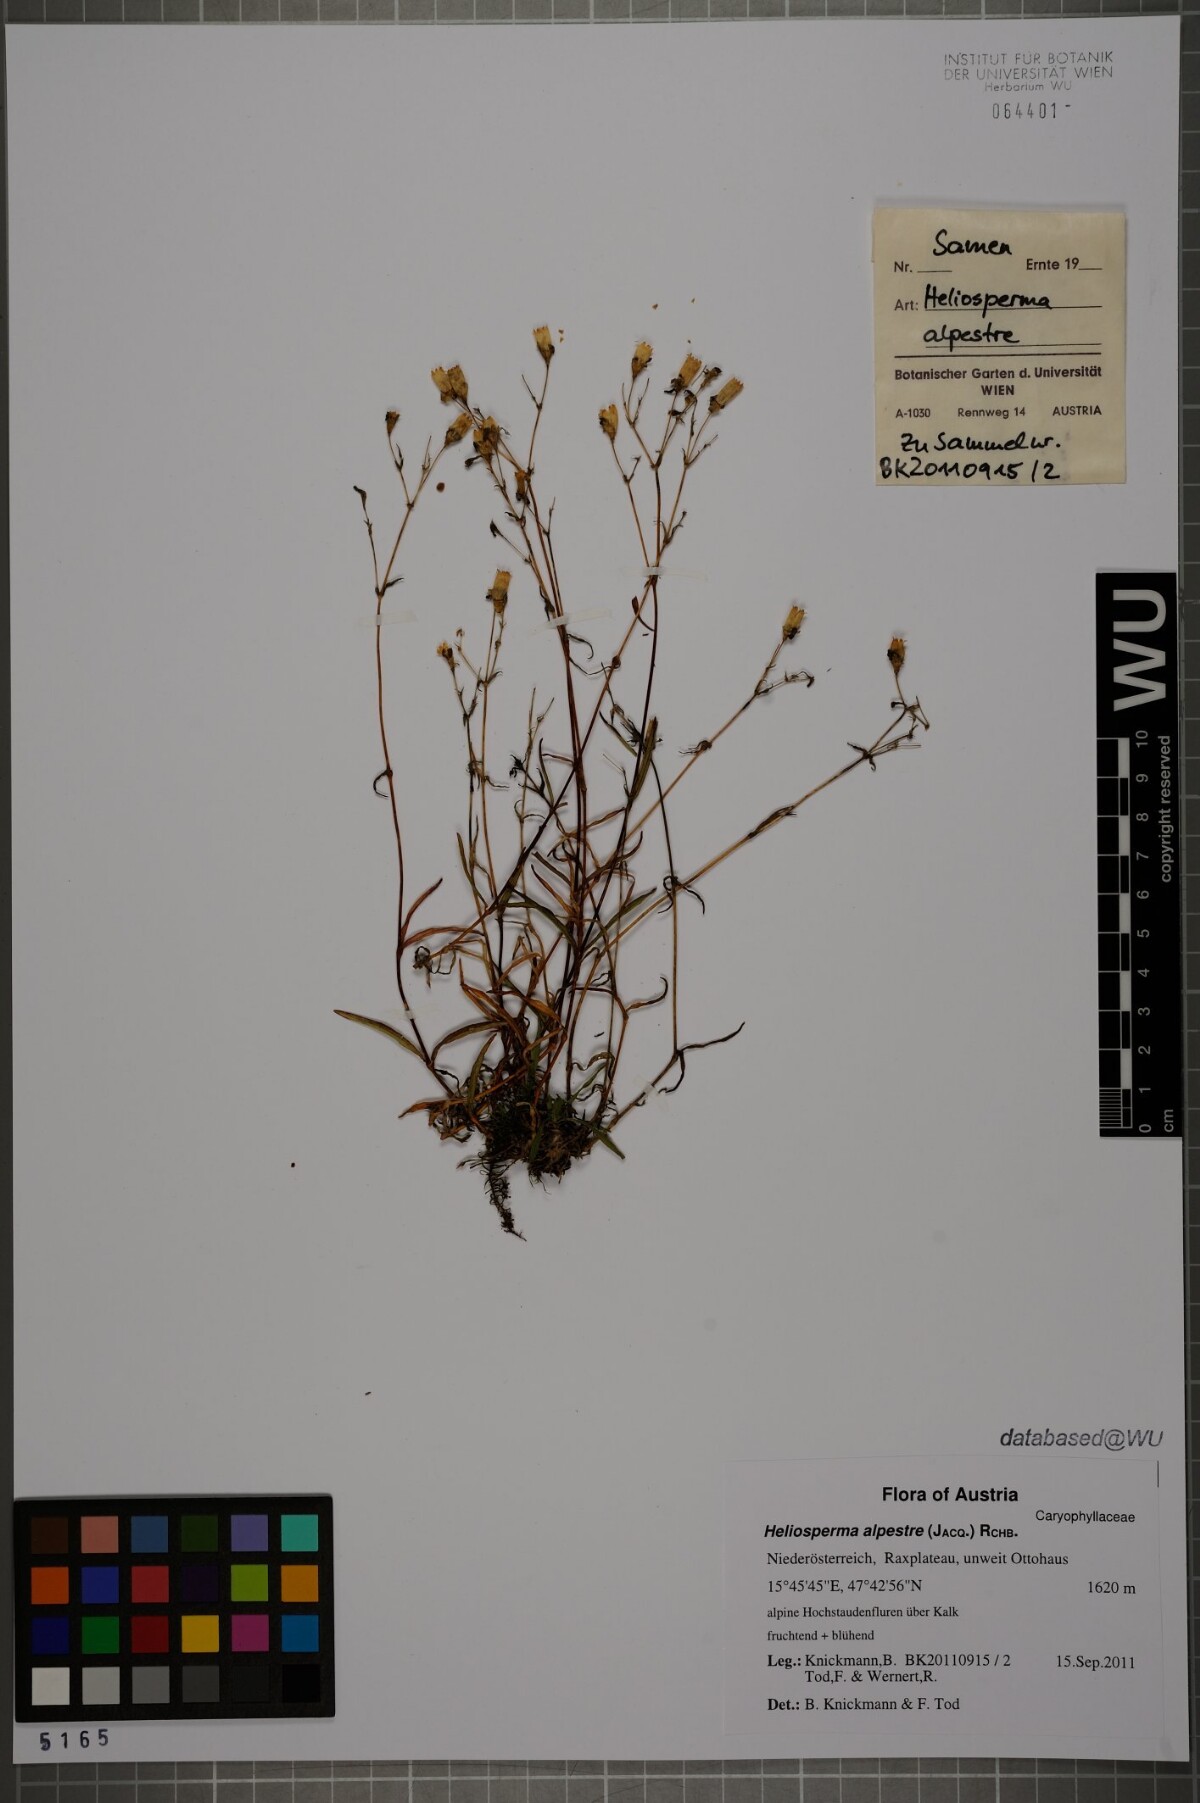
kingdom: Plantae
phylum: Tracheophyta
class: Magnoliopsida
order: Caryophyllales
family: Caryophyllaceae
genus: Heliosperma
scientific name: Heliosperma alpestre
